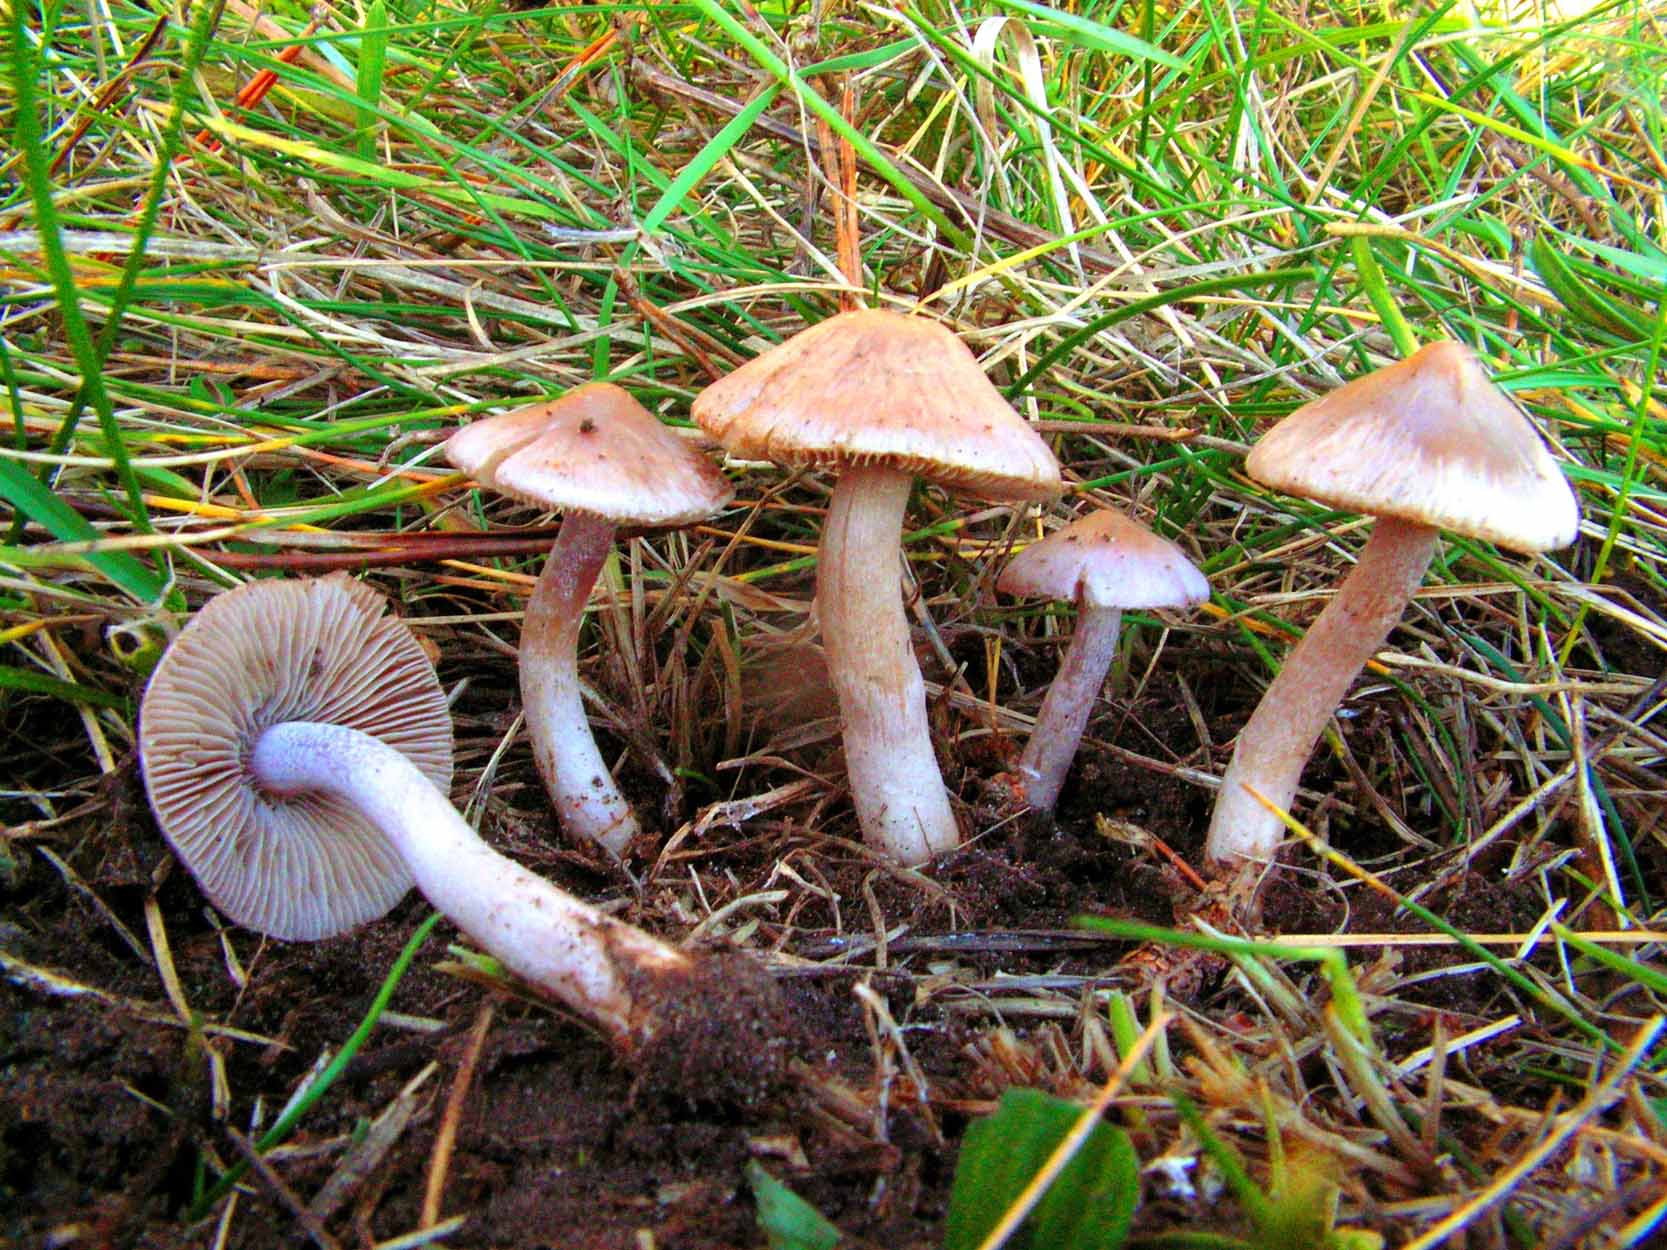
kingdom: Fungi
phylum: Basidiomycota
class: Agaricomycetes
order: Agaricales
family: Inocybaceae
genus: Inocybe
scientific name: Inocybe
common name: trævlhat
